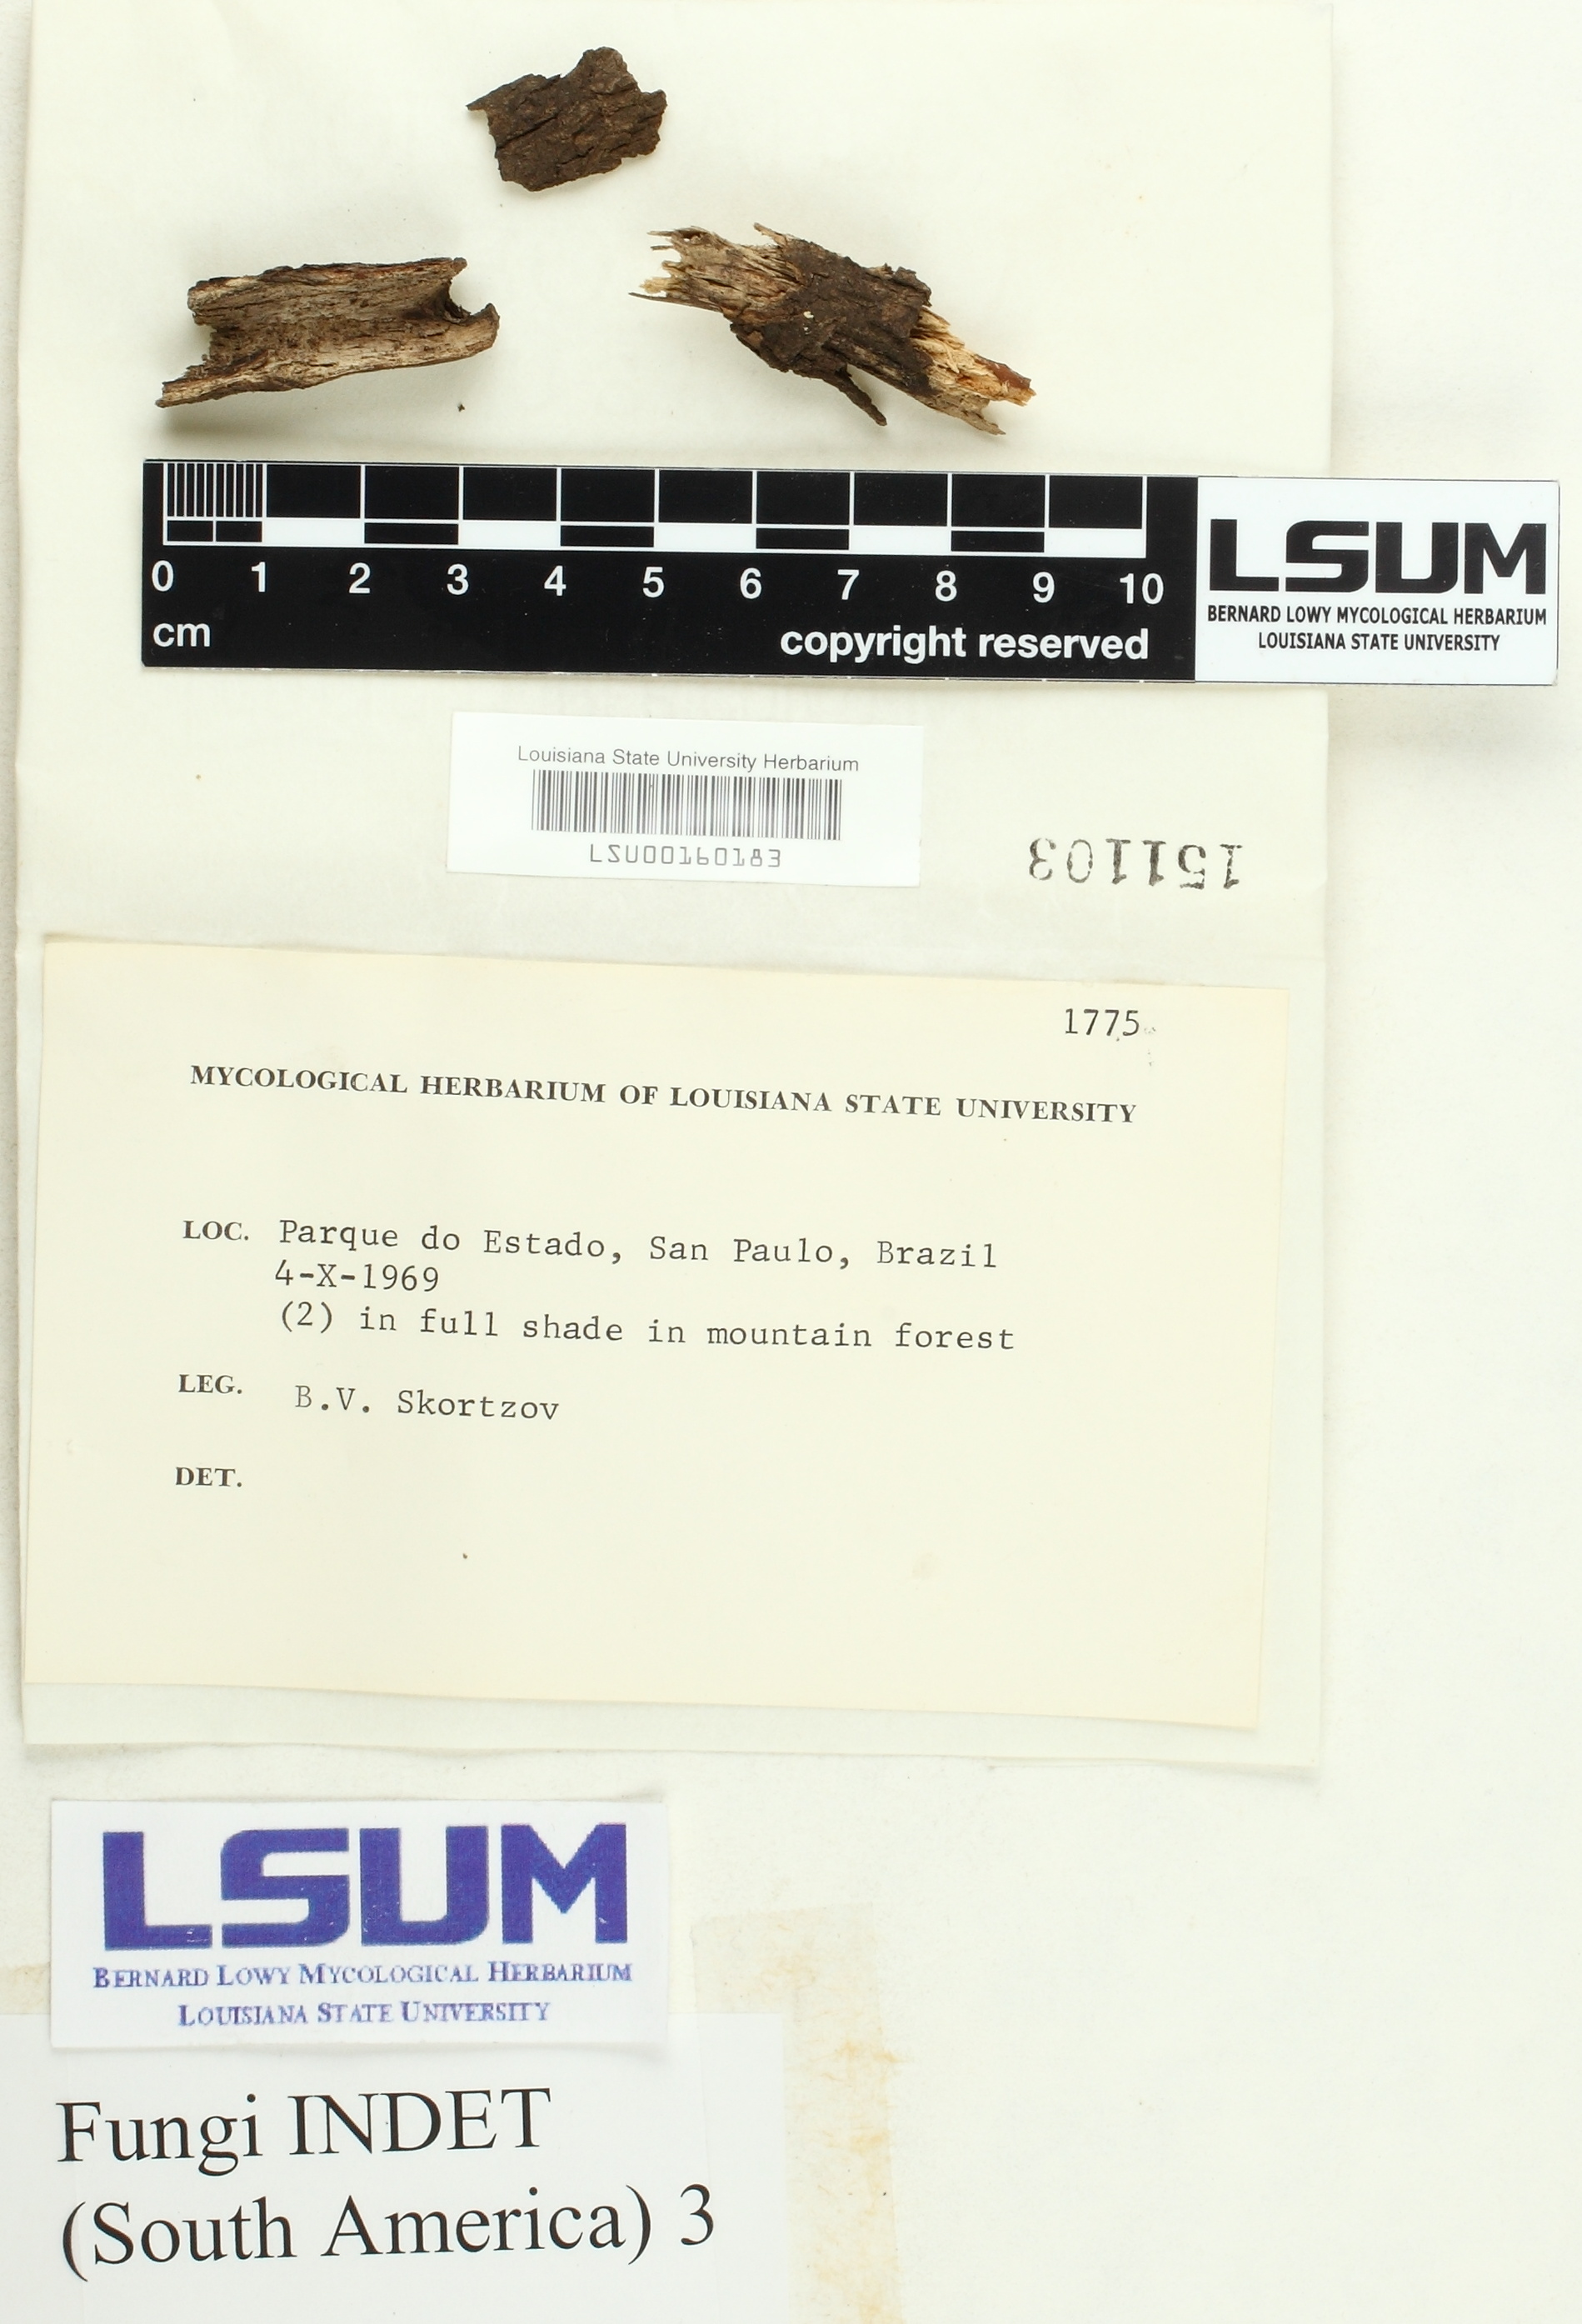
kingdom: Fungi
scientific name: Fungi
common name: Fungi
